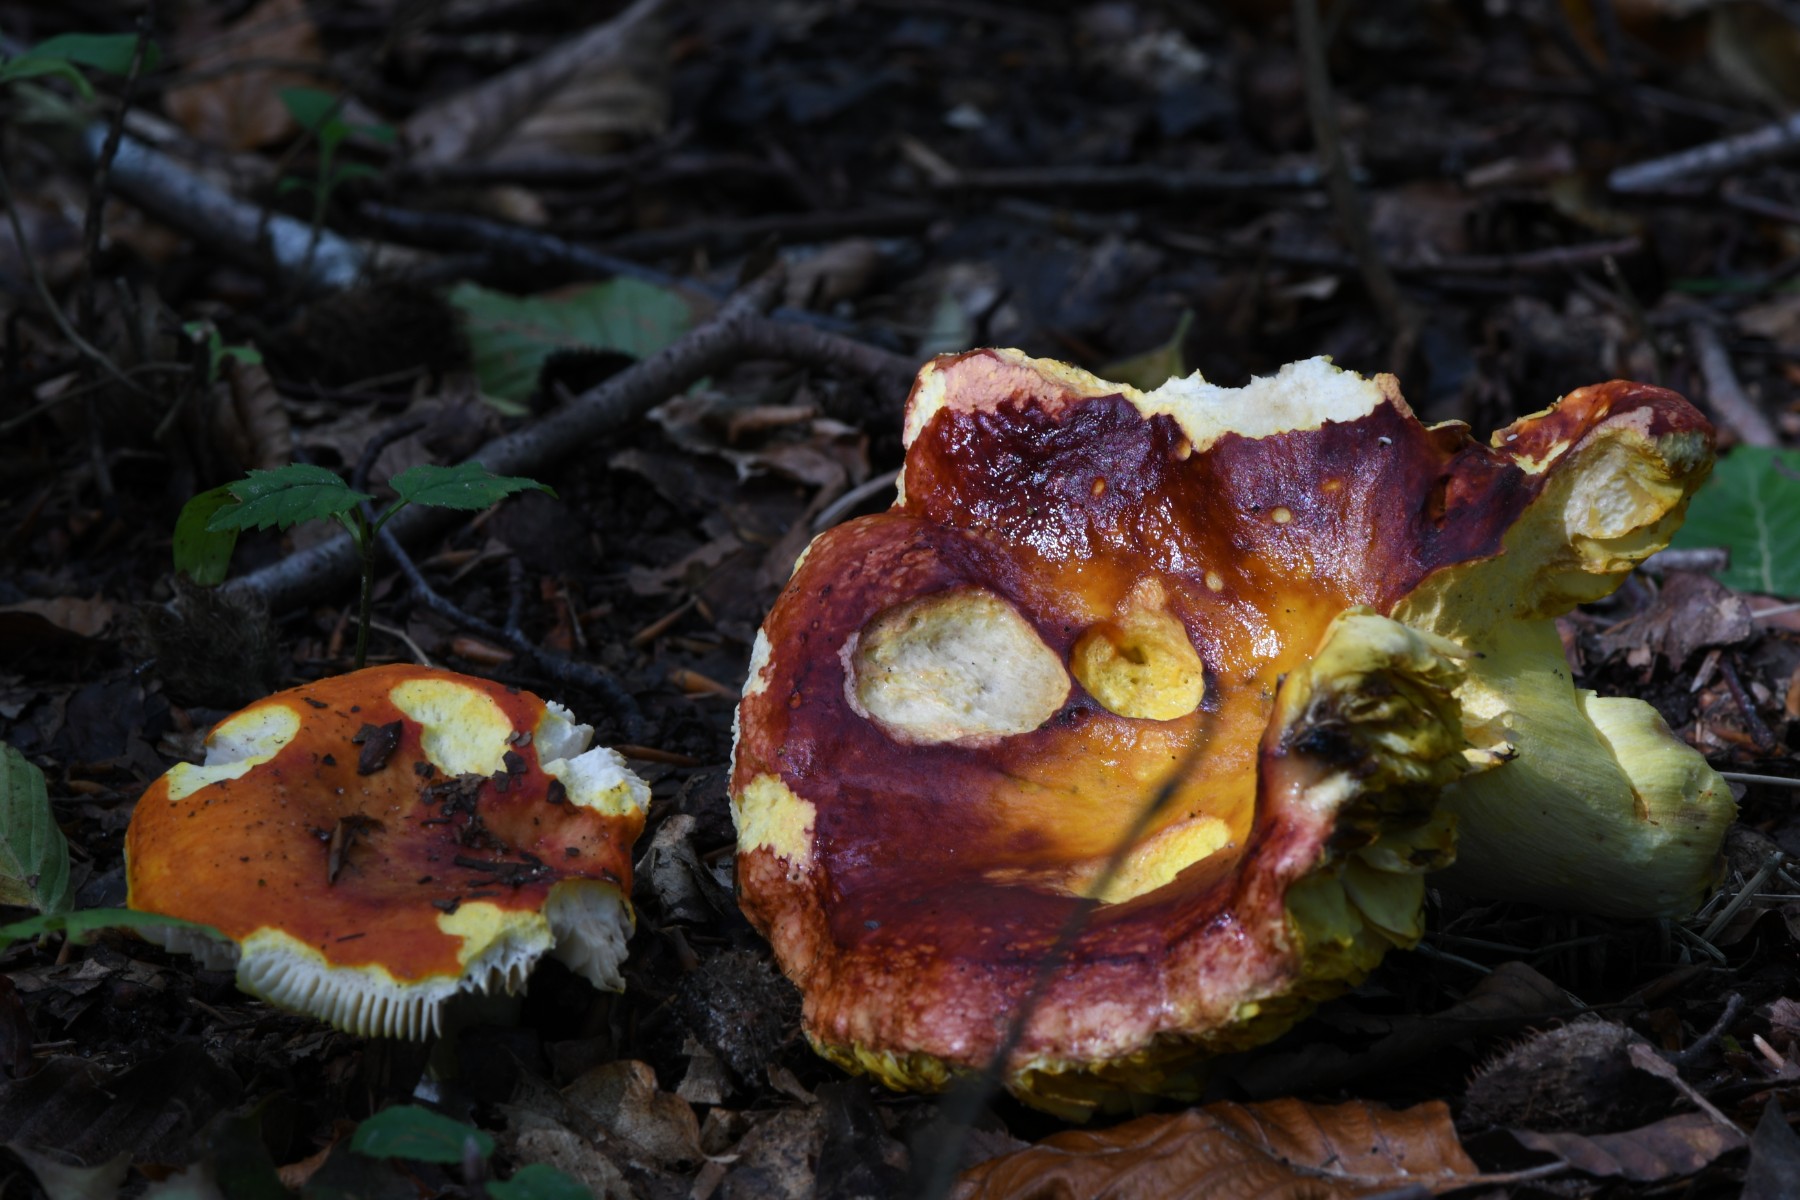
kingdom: Fungi
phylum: Basidiomycota
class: Agaricomycetes
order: Russulales
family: Russulaceae
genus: Russula
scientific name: Russula aurea
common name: gylden skørhat
